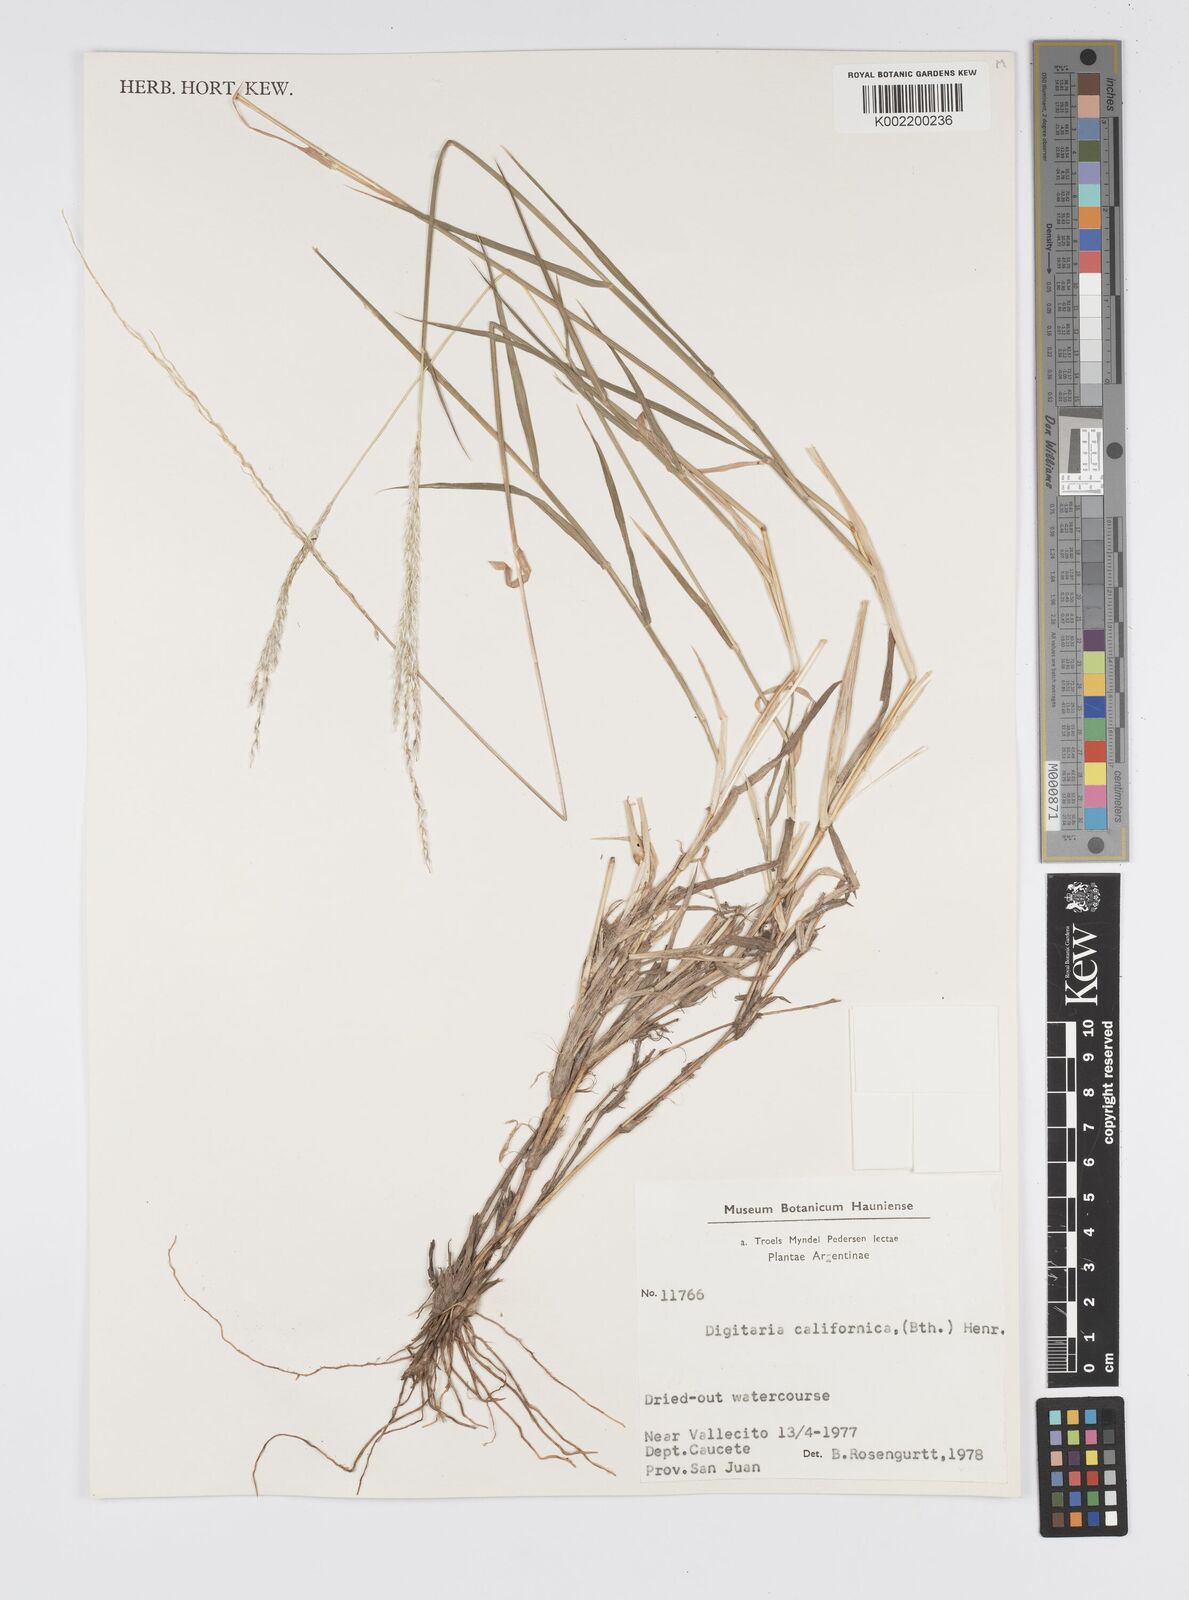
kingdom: Plantae
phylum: Tracheophyta
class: Liliopsida
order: Poales
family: Poaceae
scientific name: Poaceae
